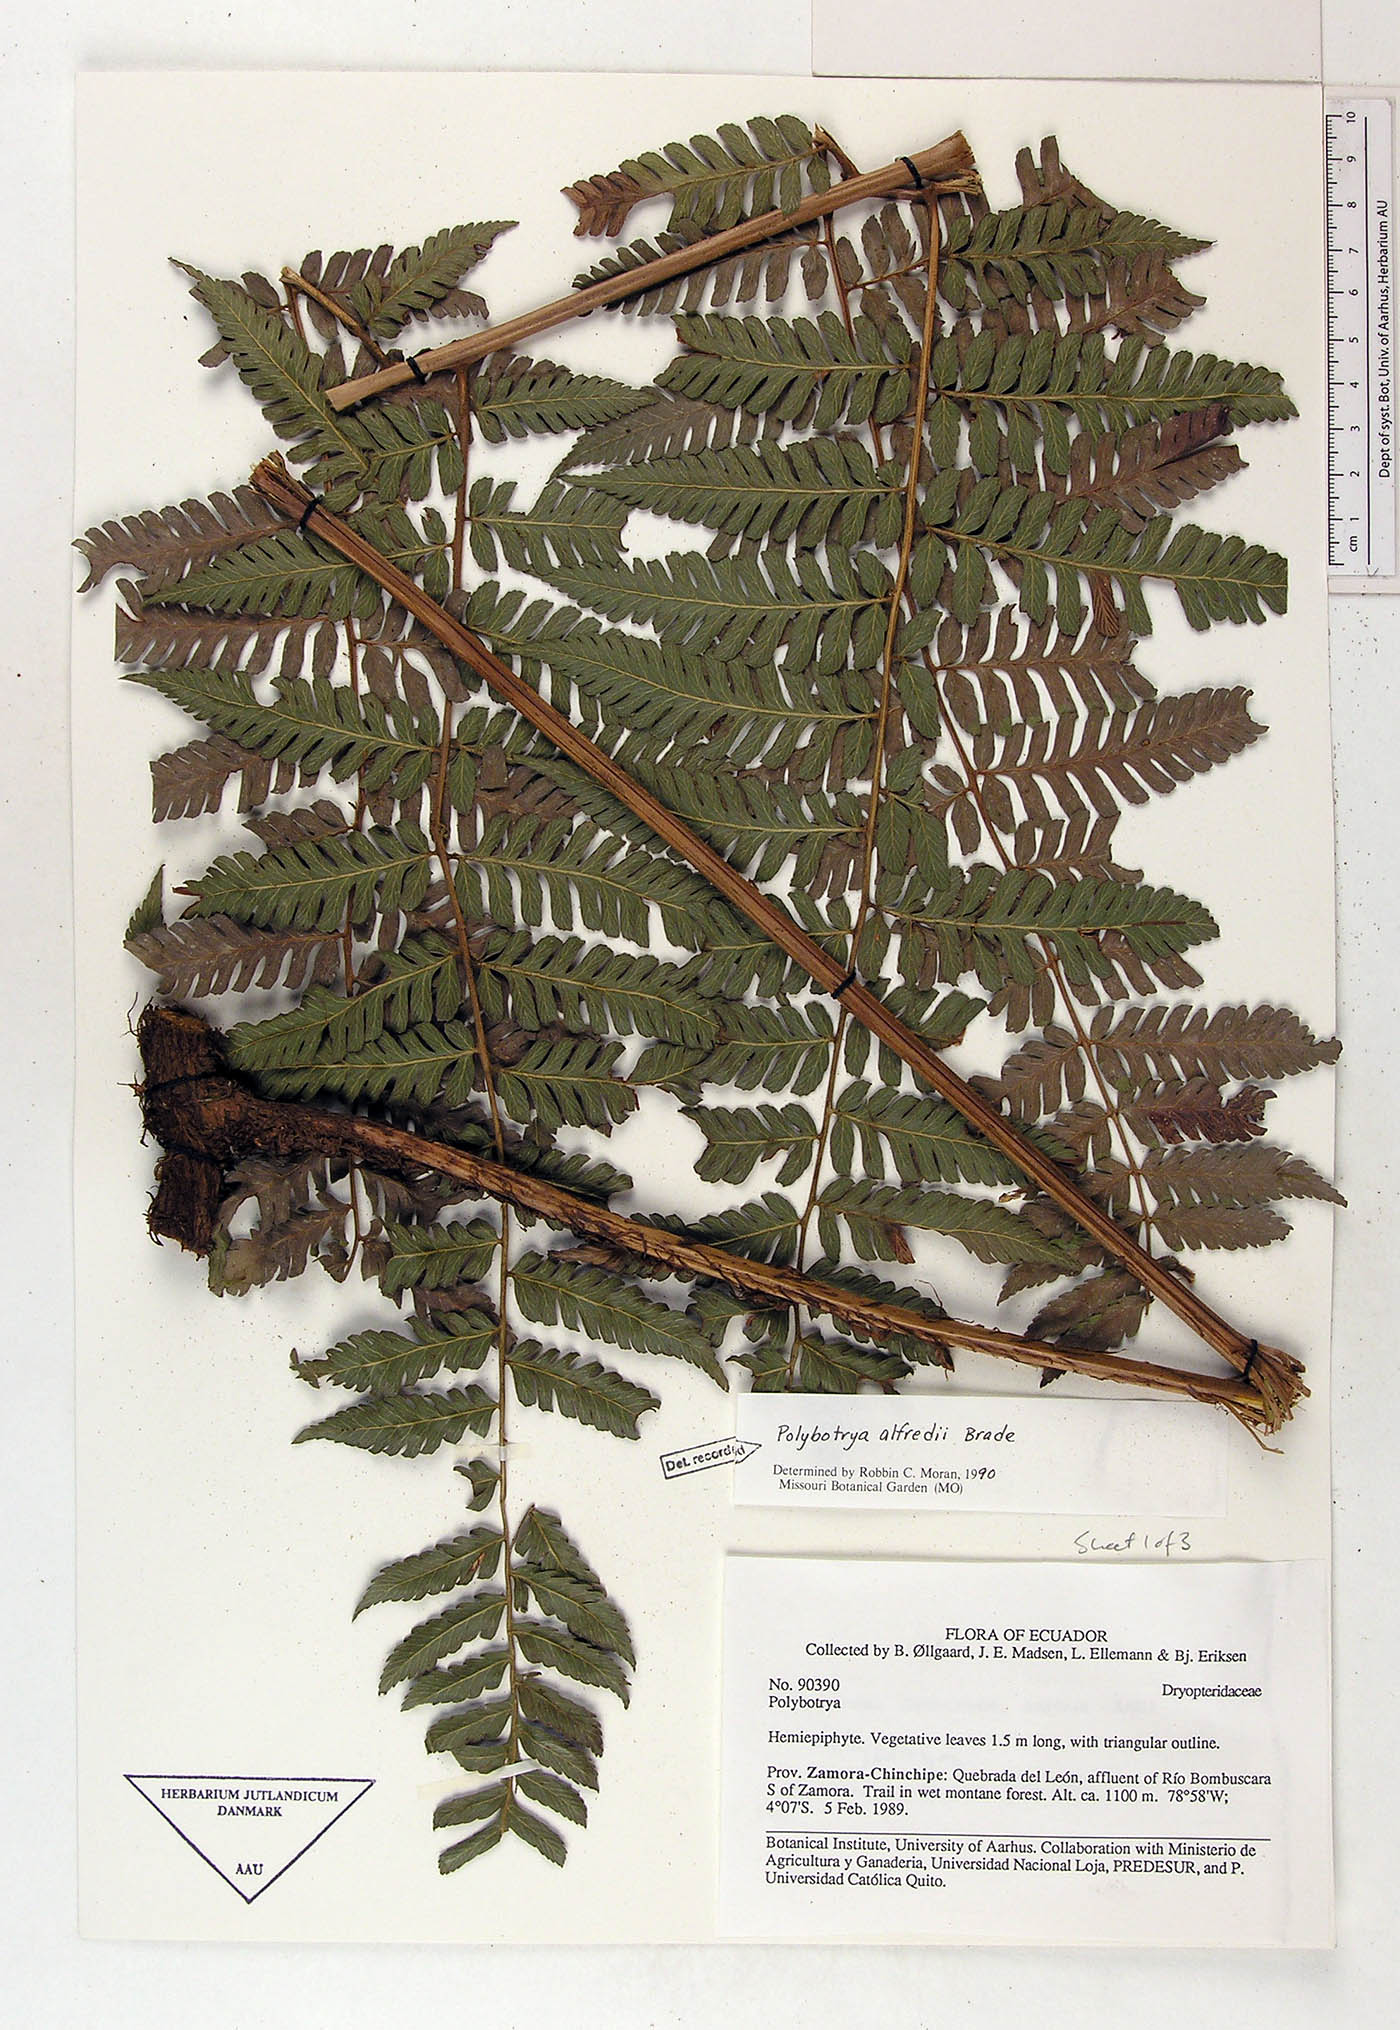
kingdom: Plantae
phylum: Tracheophyta
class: Polypodiopsida
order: Polypodiales
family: Dryopteridaceae
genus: Polybotrya
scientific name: Polybotrya alfredii
